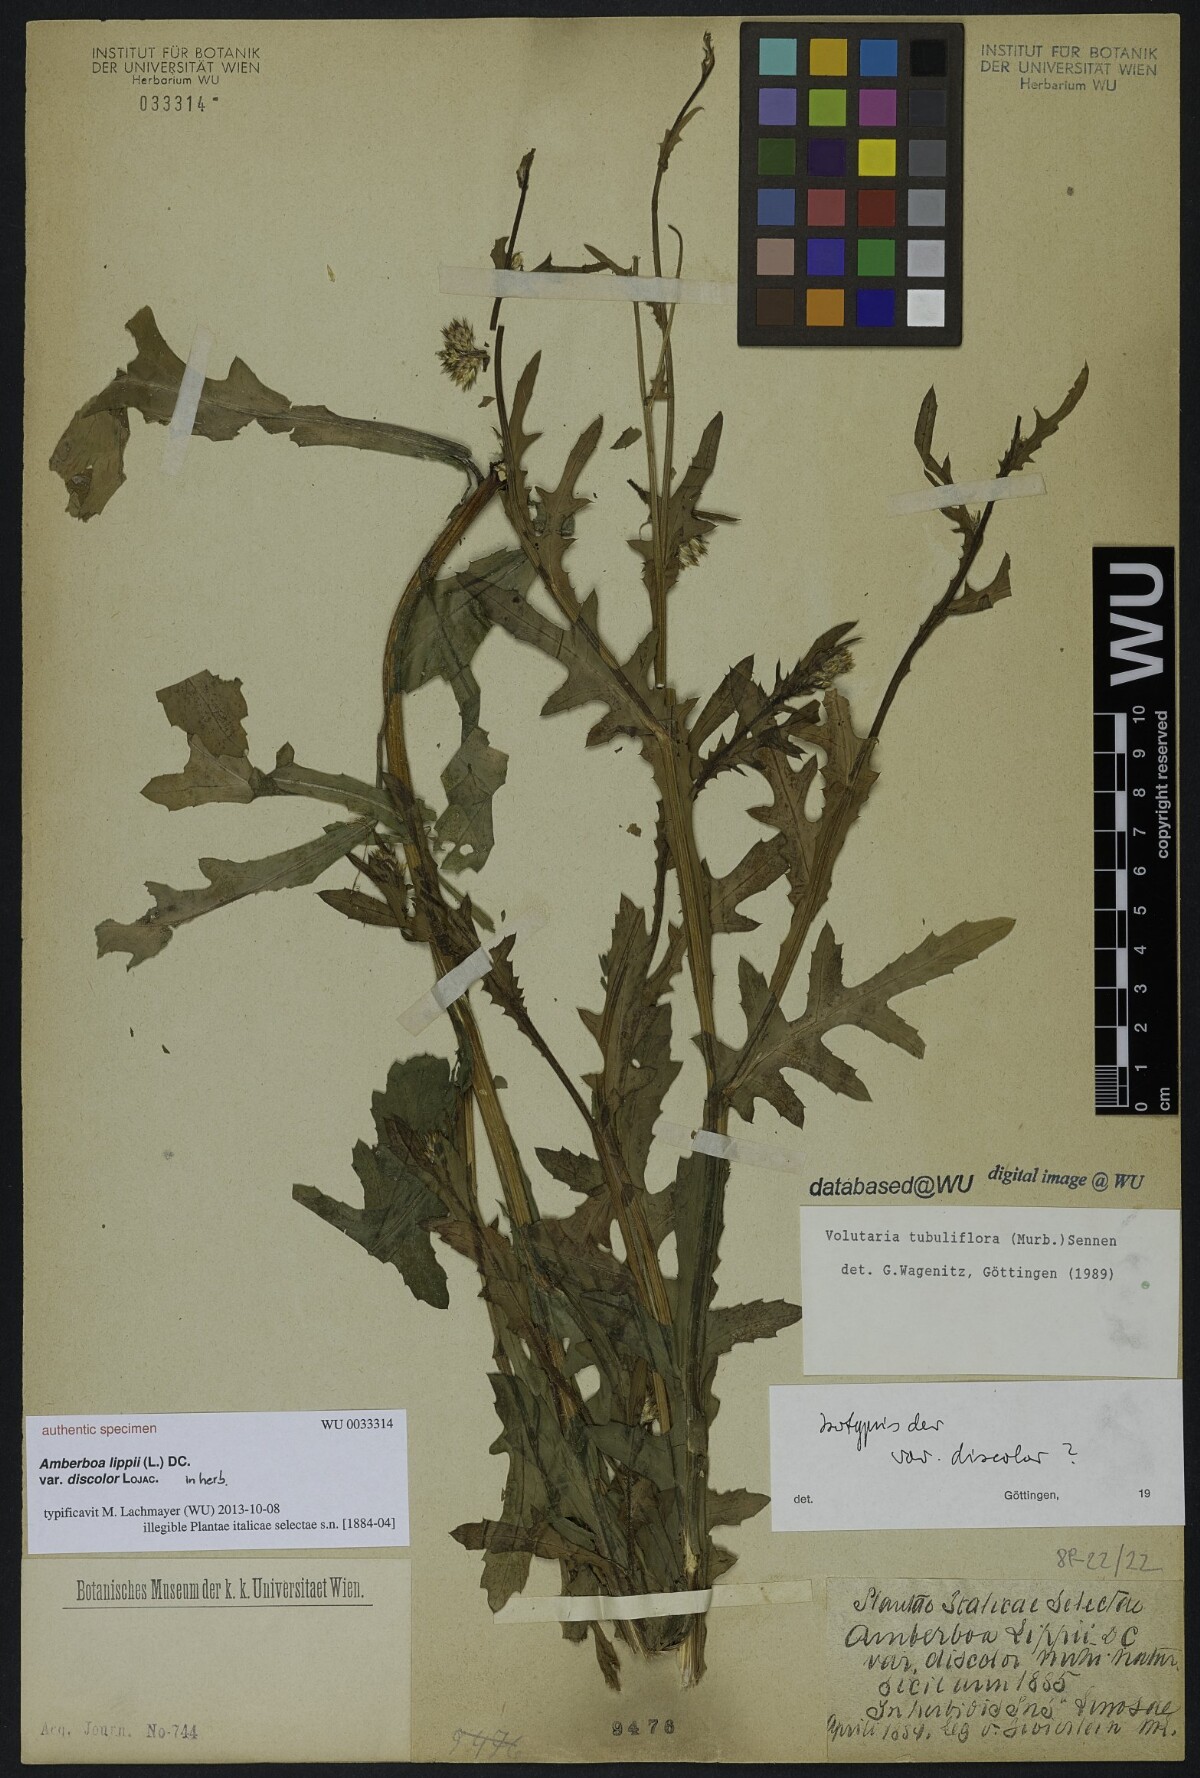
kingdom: Plantae
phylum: Tracheophyta
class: Magnoliopsida
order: Asterales
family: Asteraceae
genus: Volutaria
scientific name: Volutaria lippii
